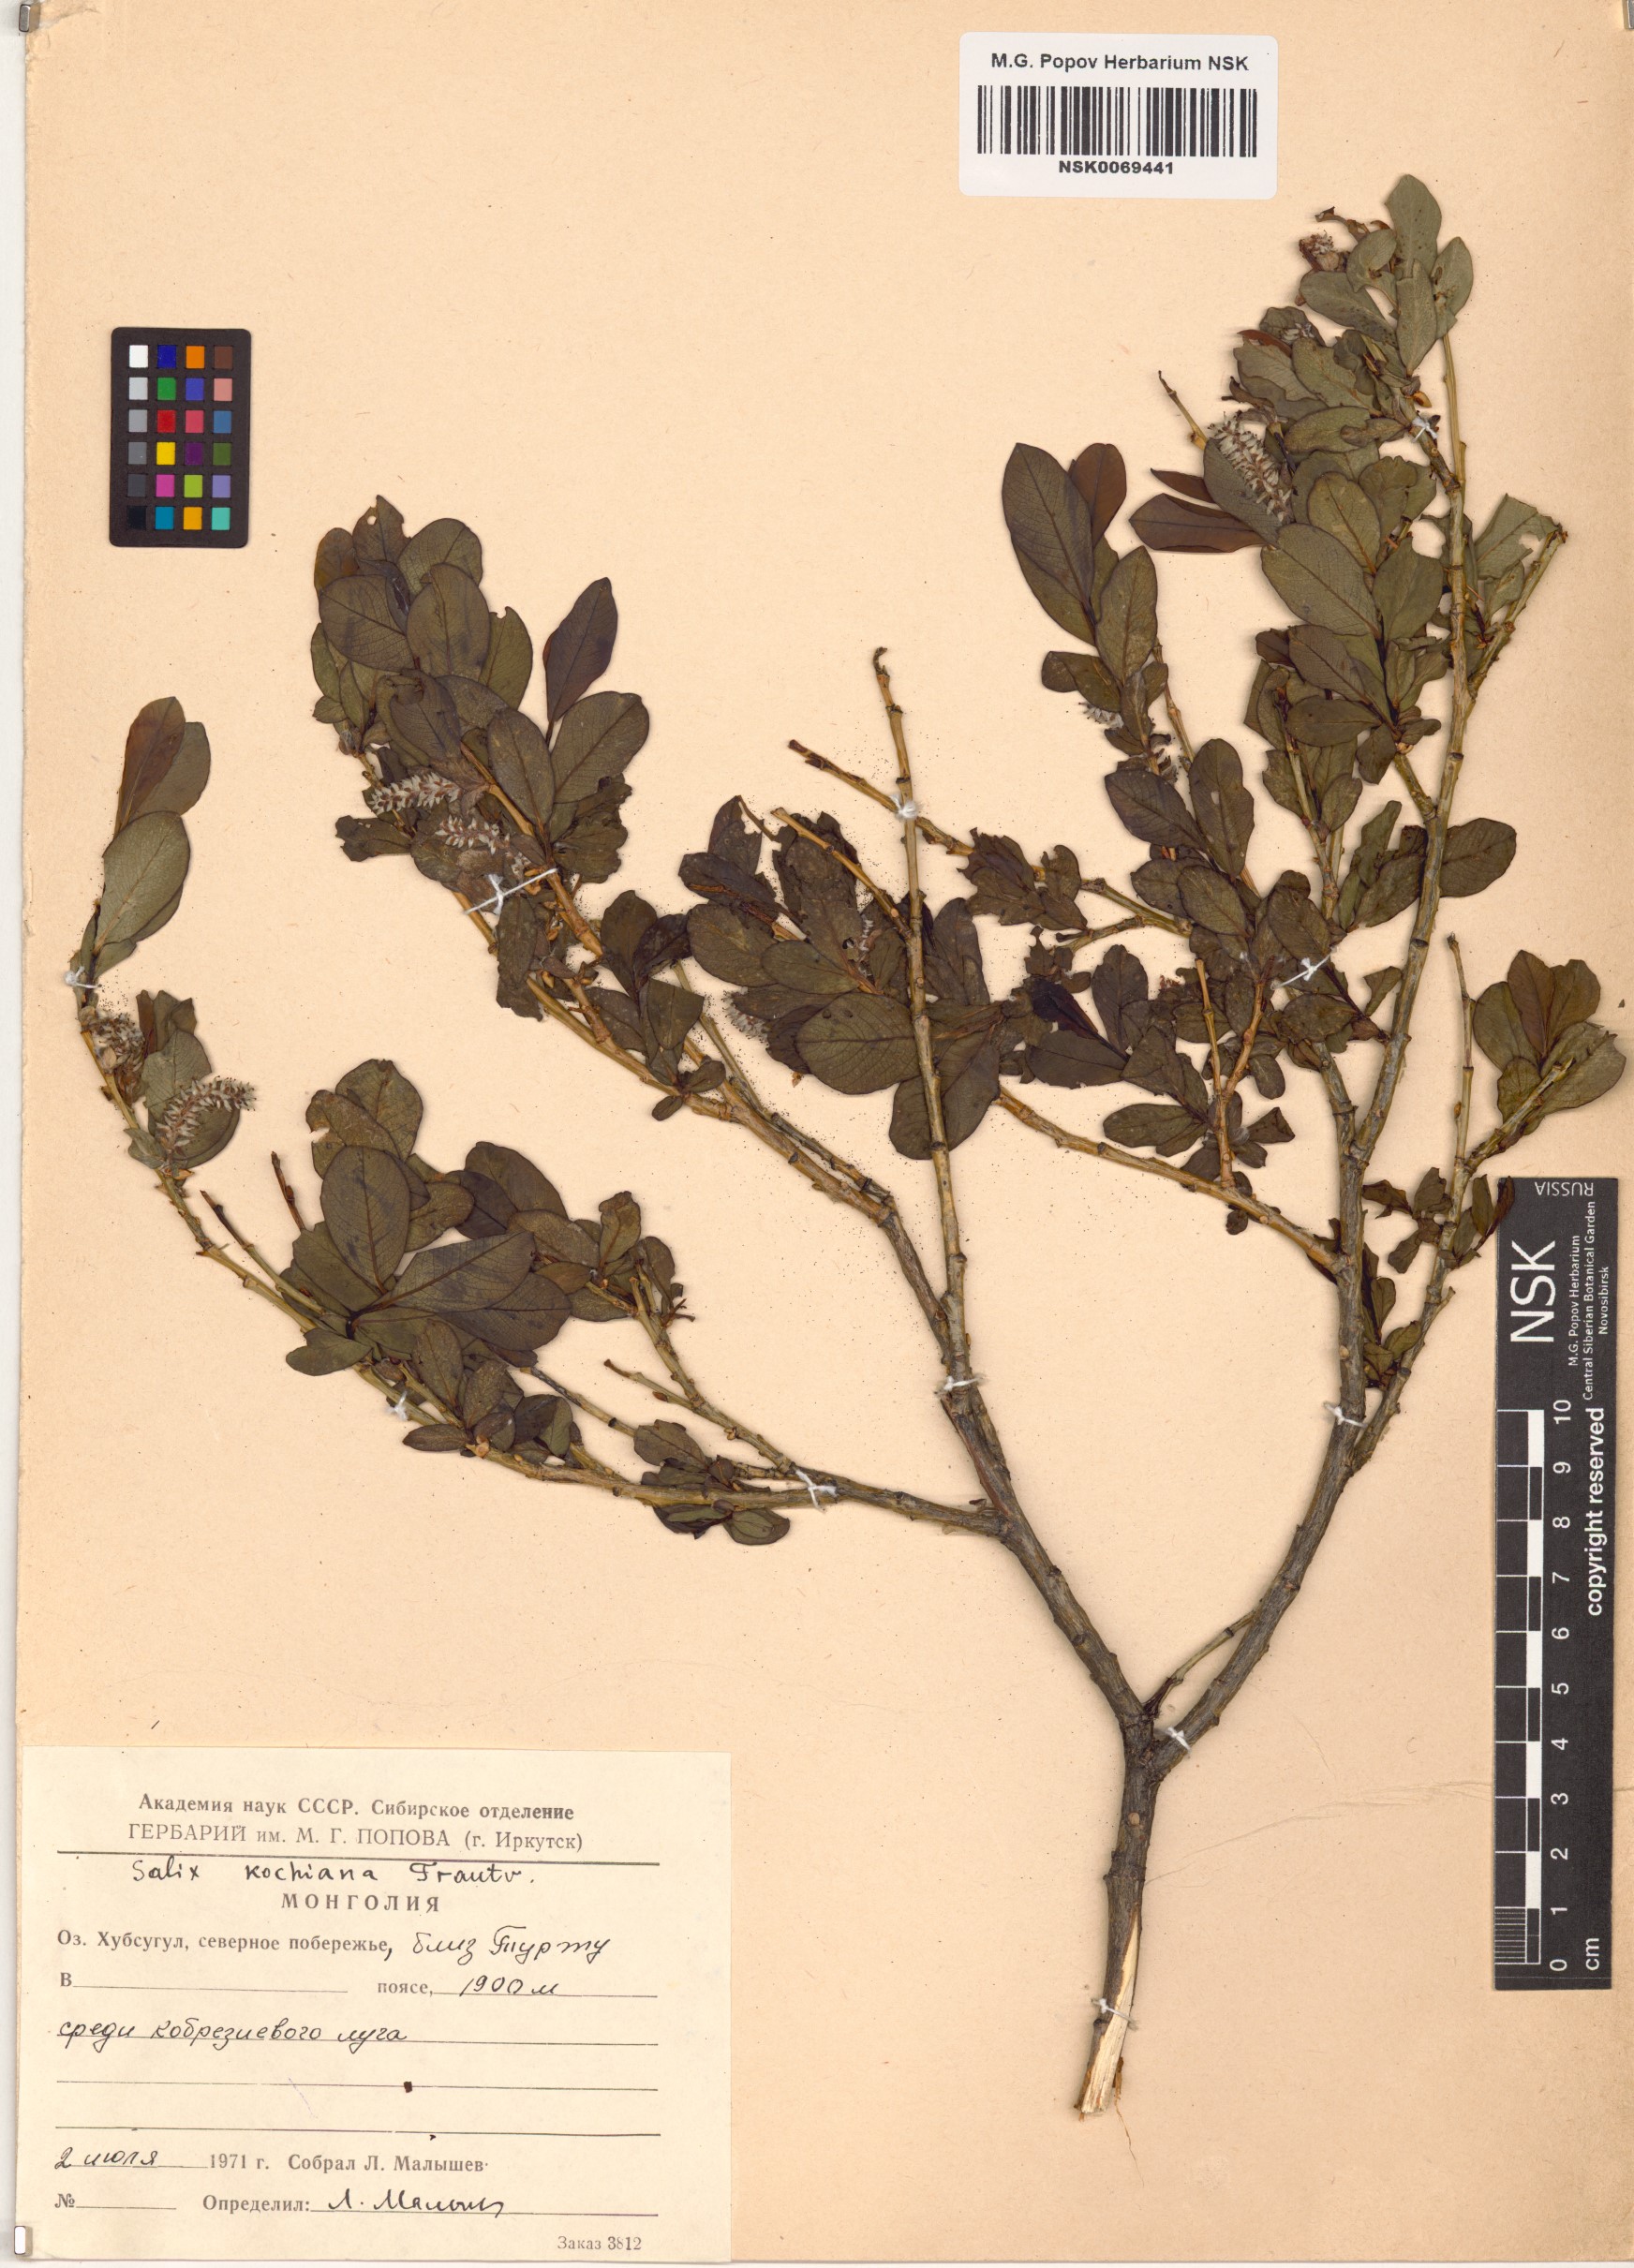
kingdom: Plantae
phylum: Tracheophyta
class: Magnoliopsida
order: Malpighiales
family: Salicaceae
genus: Salix
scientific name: Salix kochiana
